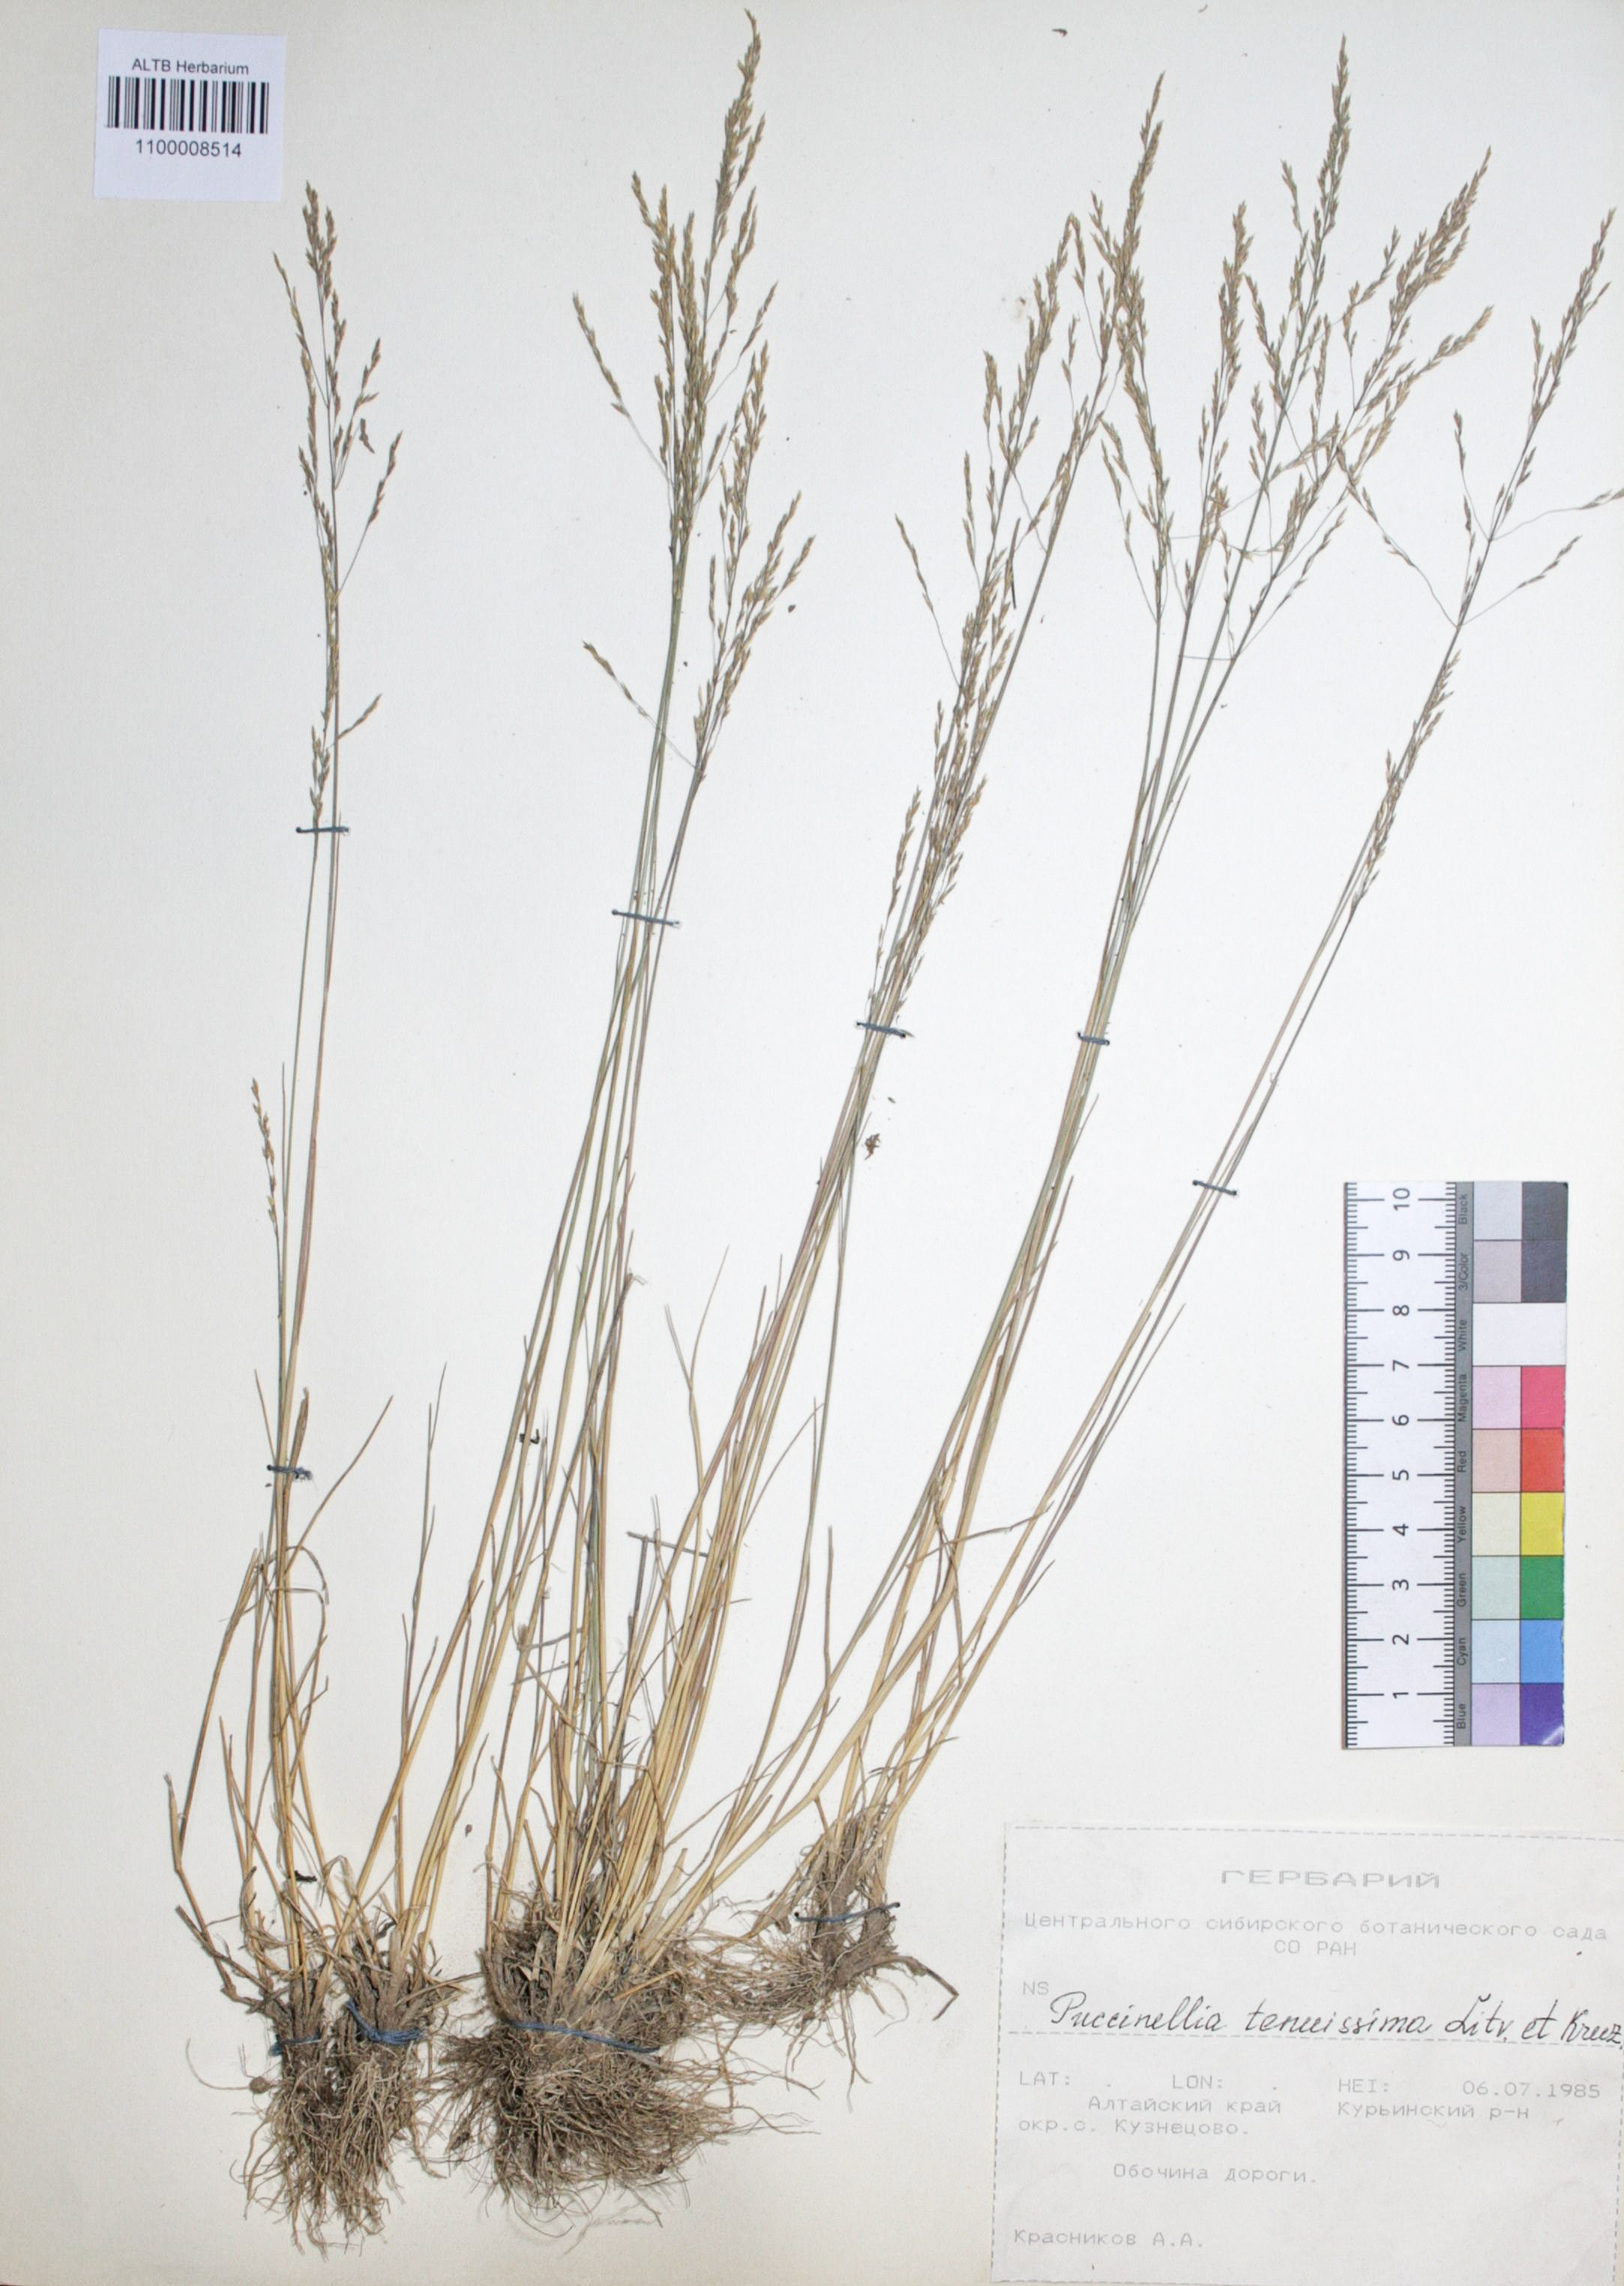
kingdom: Plantae
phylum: Tracheophyta
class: Liliopsida
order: Poales
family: Poaceae
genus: Puccinellia
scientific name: Puccinellia tenuiflora
